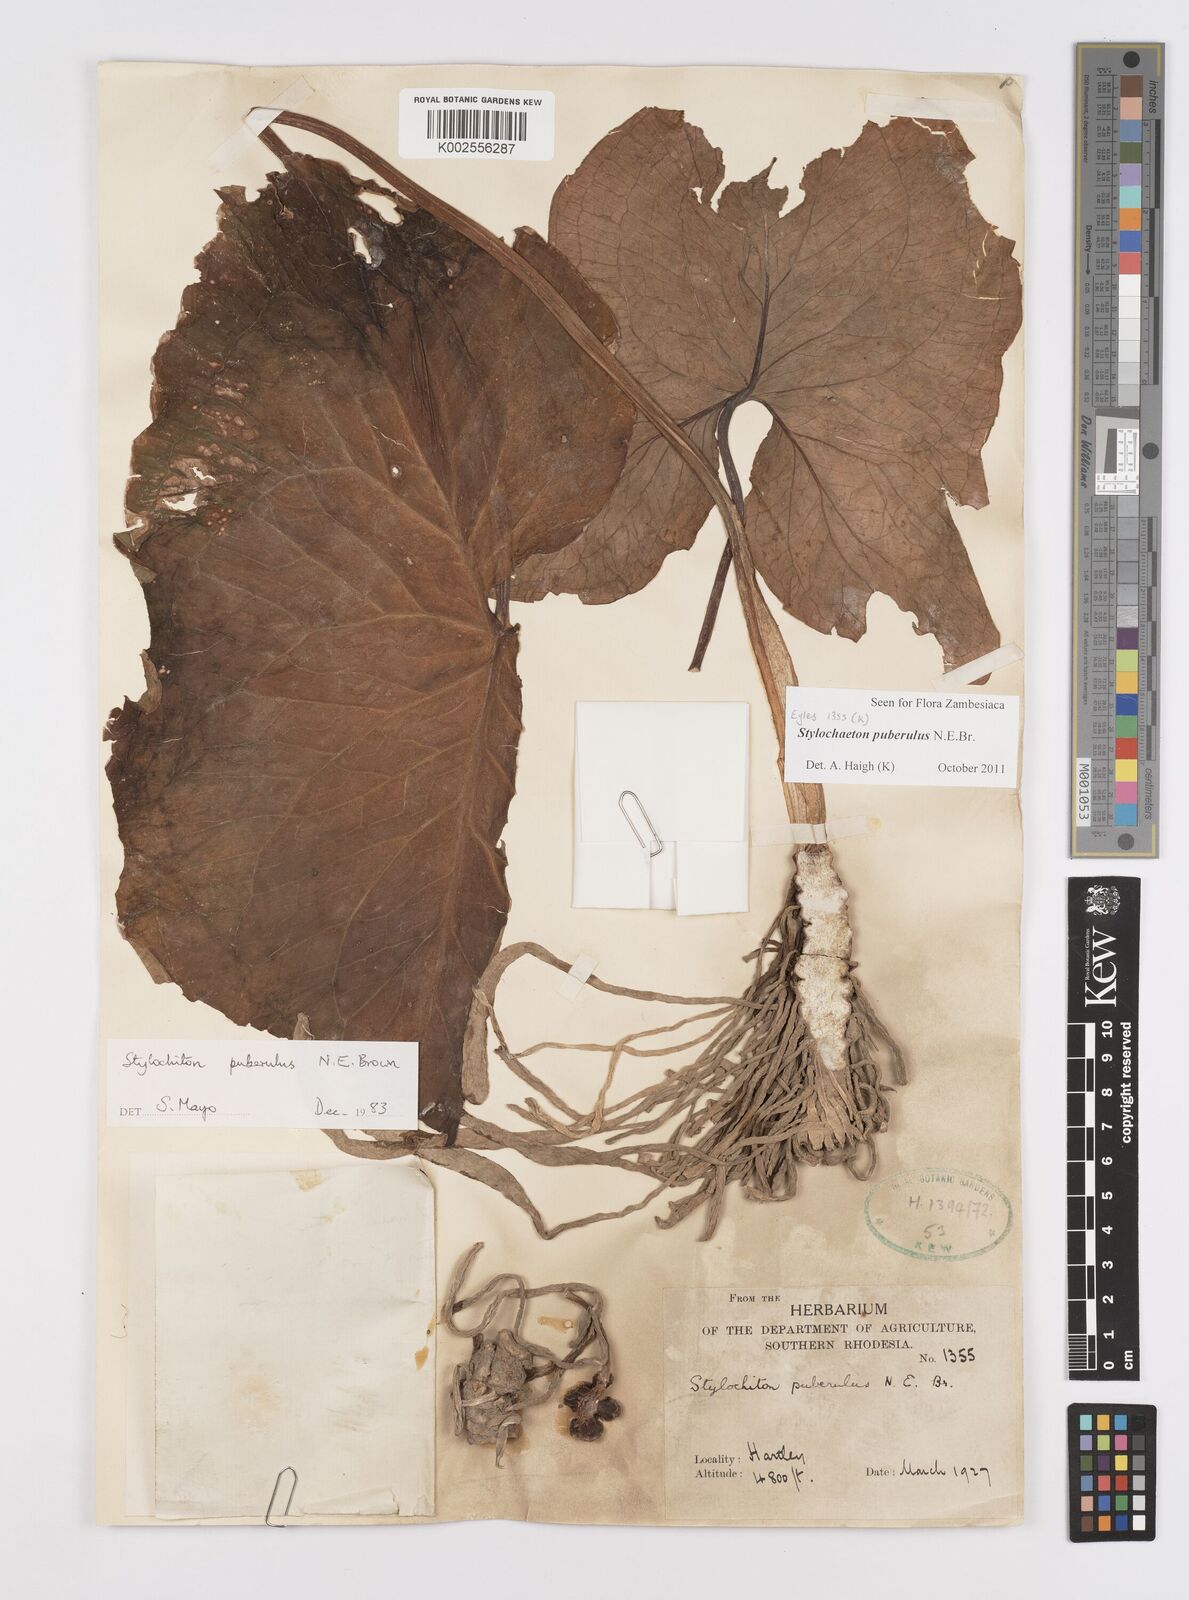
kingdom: Plantae
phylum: Tracheophyta
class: Liliopsida
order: Alismatales
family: Araceae
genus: Stylochaeton
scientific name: Stylochaeton puberulum
